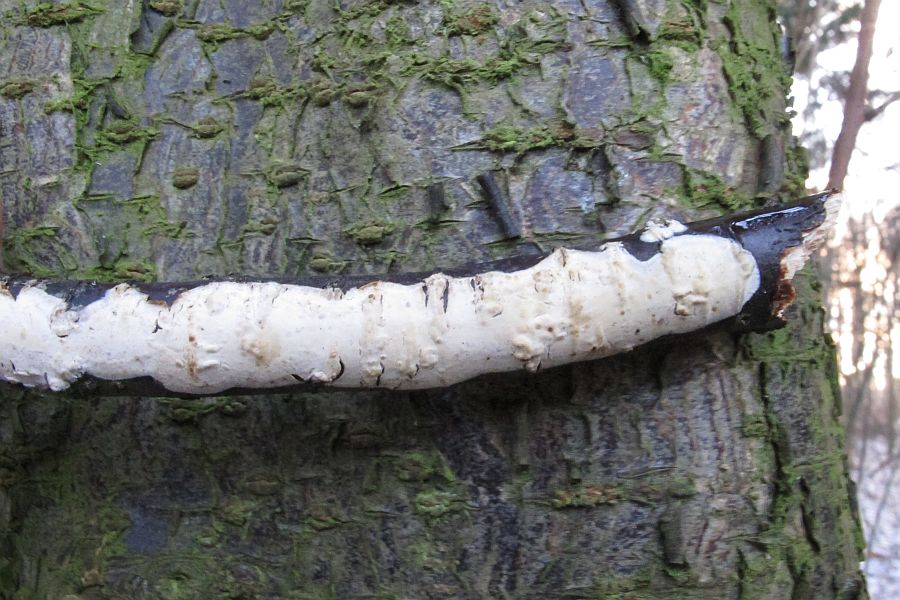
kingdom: Fungi
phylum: Basidiomycota
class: Agaricomycetes
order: Agaricales
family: Radulomycetaceae
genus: Radulomyces
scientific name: Radulomyces confluens
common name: glat naftalinskind
